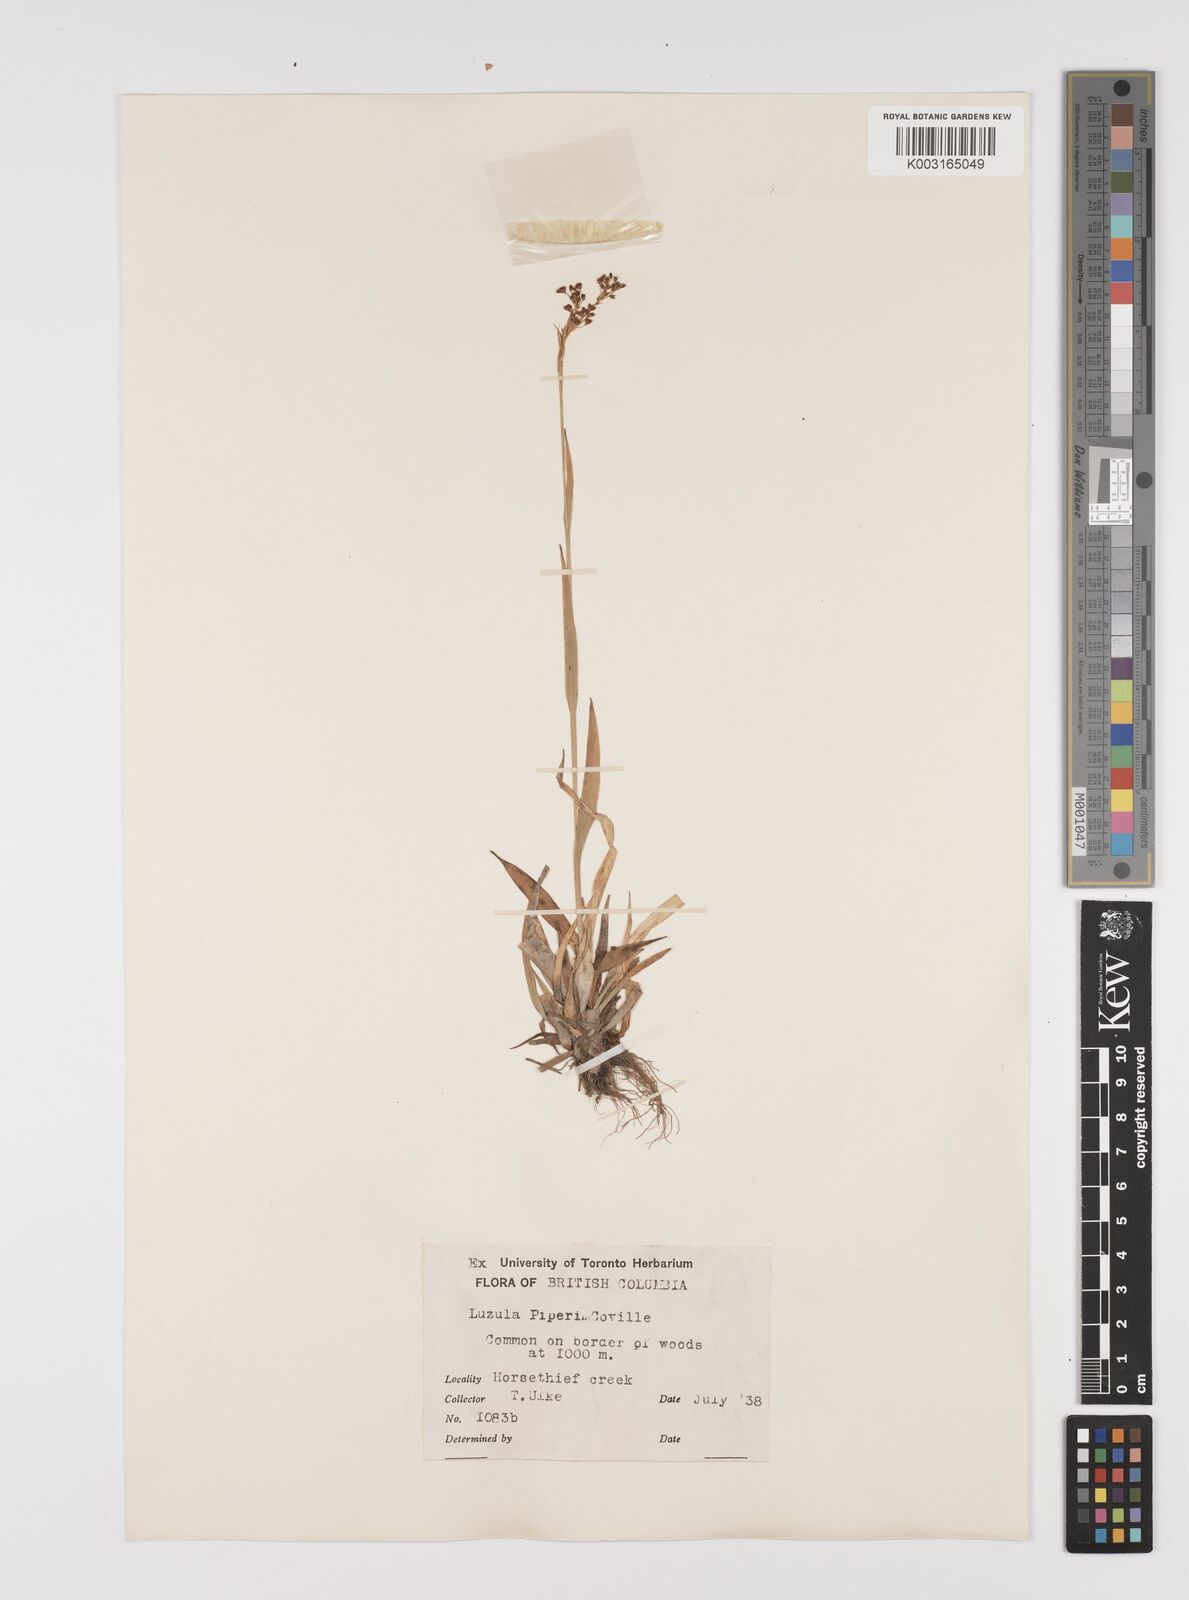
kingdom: Plantae
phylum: Tracheophyta
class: Liliopsida
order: Poales
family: Juncaceae
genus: Luzula
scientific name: Luzula piperi
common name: Piper's wood-rush
